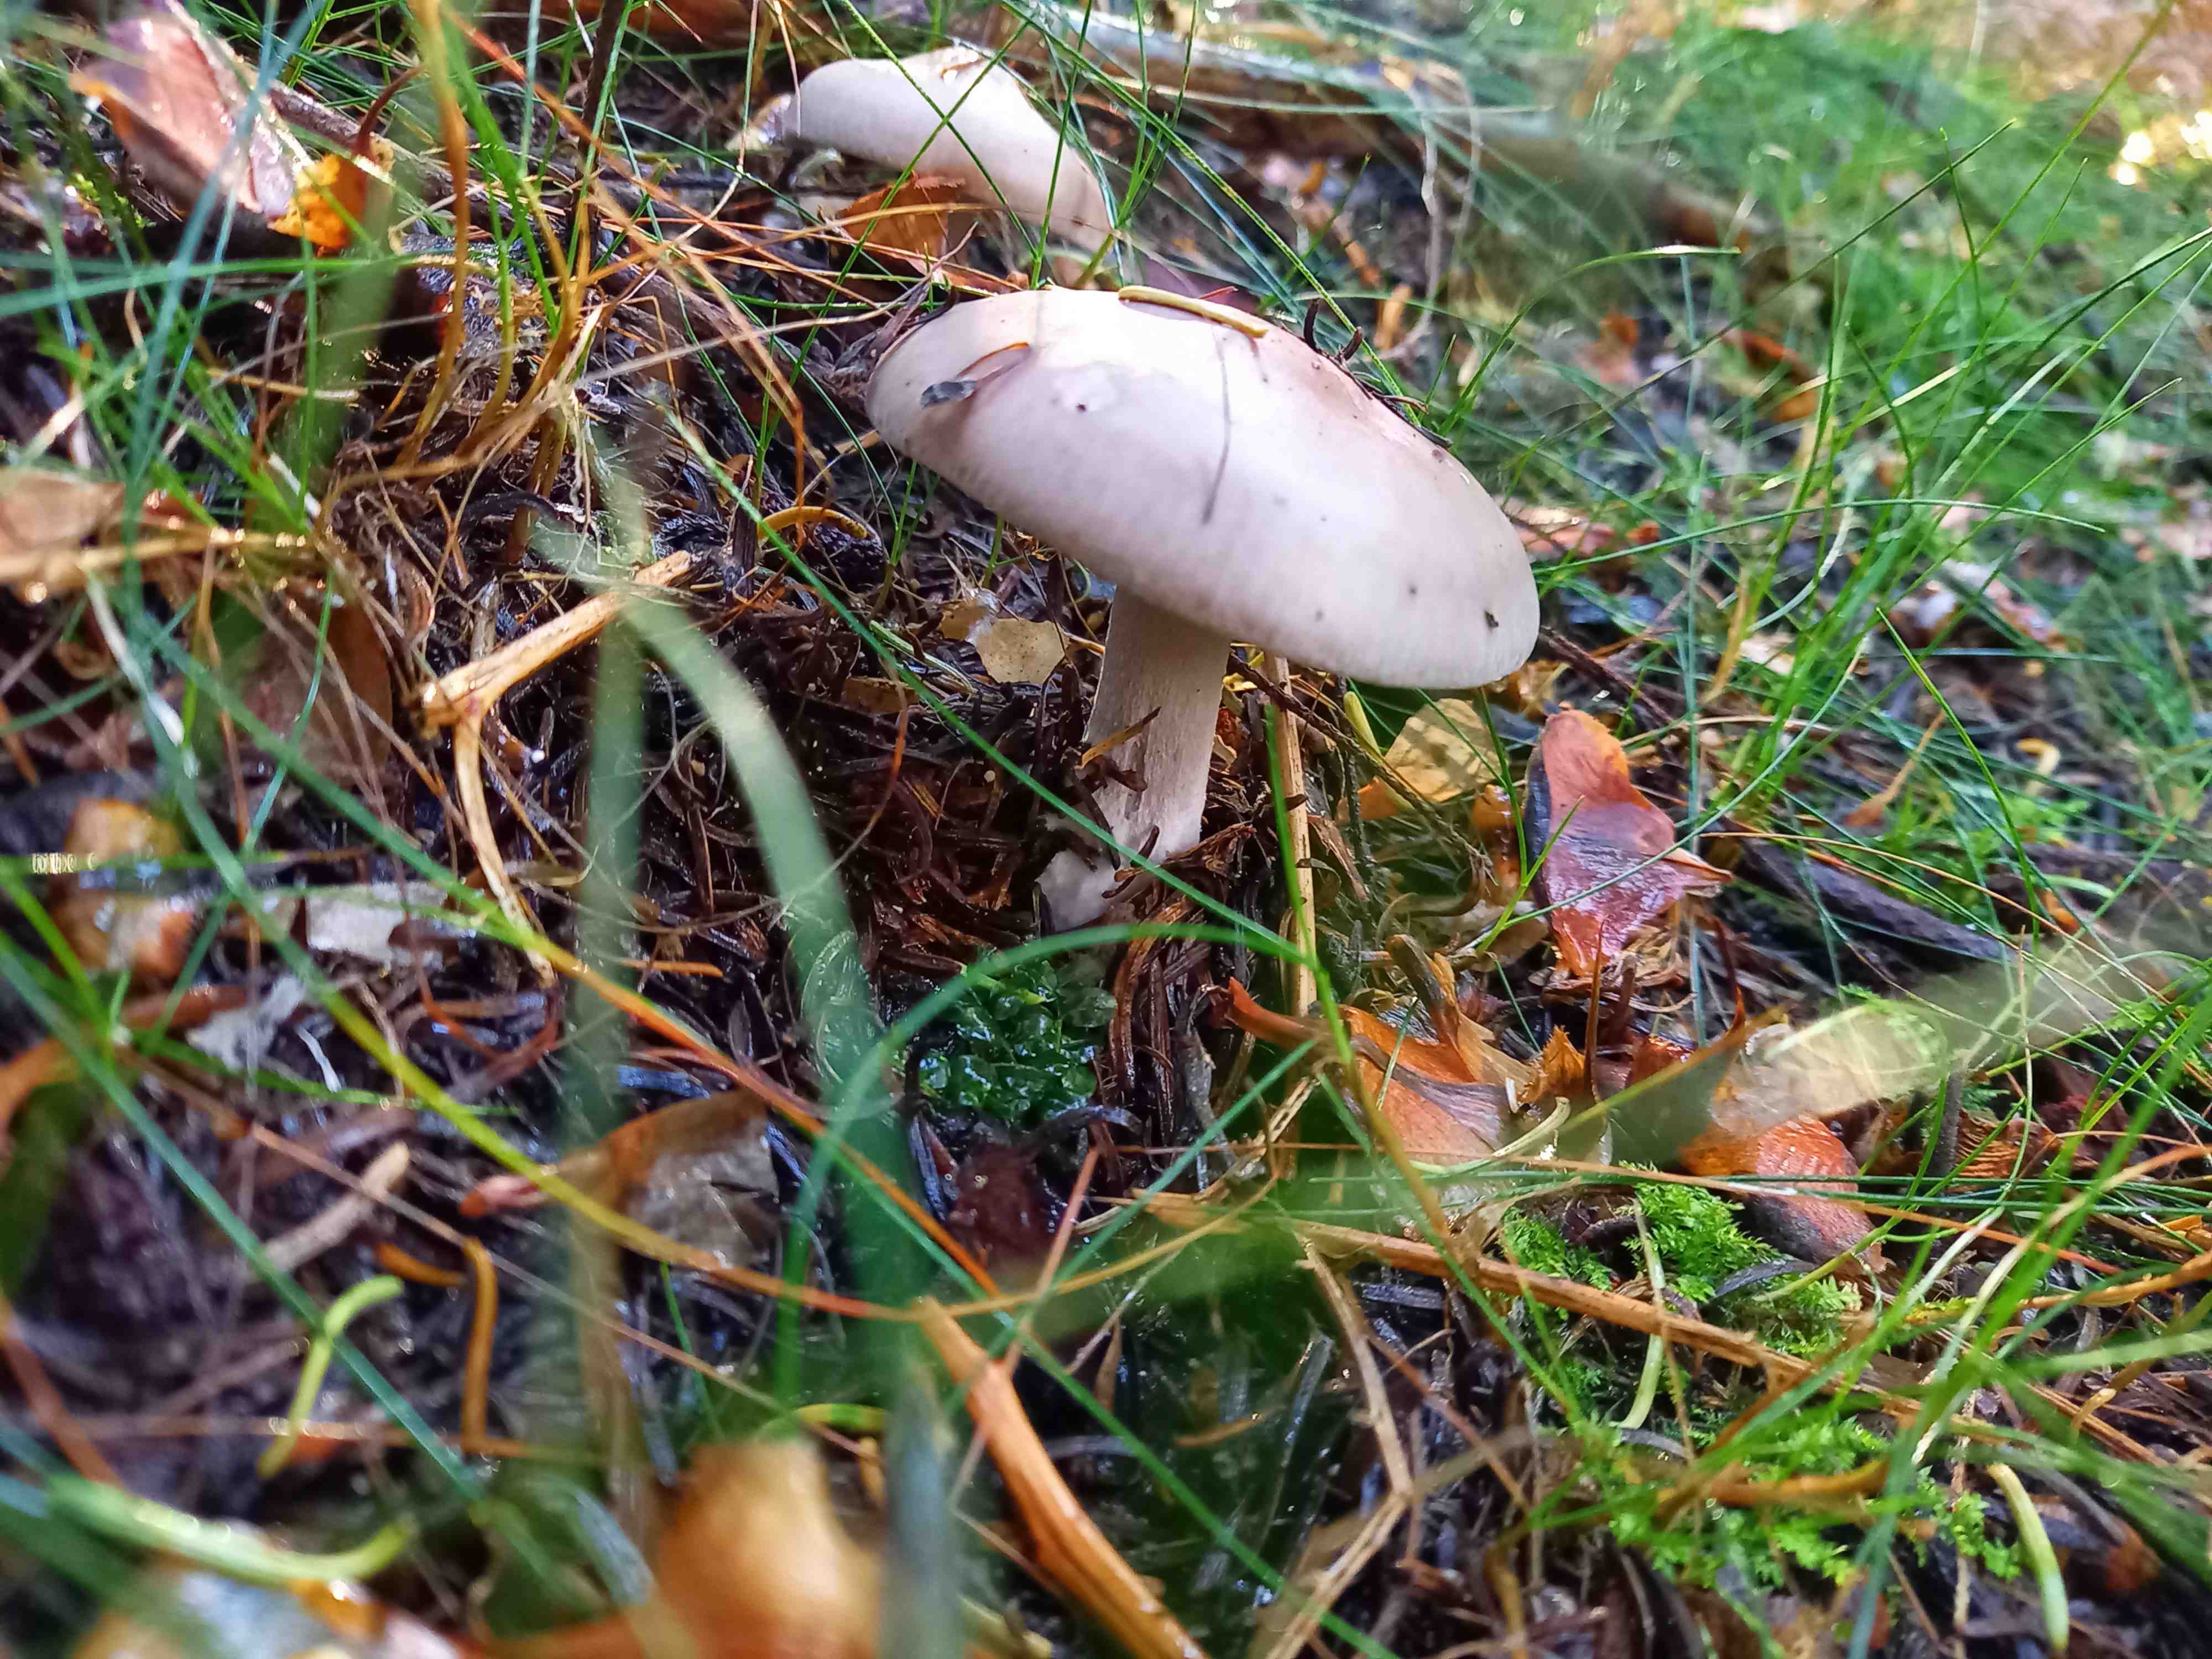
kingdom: Fungi
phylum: Basidiomycota
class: Agaricomycetes
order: Agaricales
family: Tricholomataceae
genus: Lepista
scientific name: Lepista nuda
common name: violet hekseringshat
